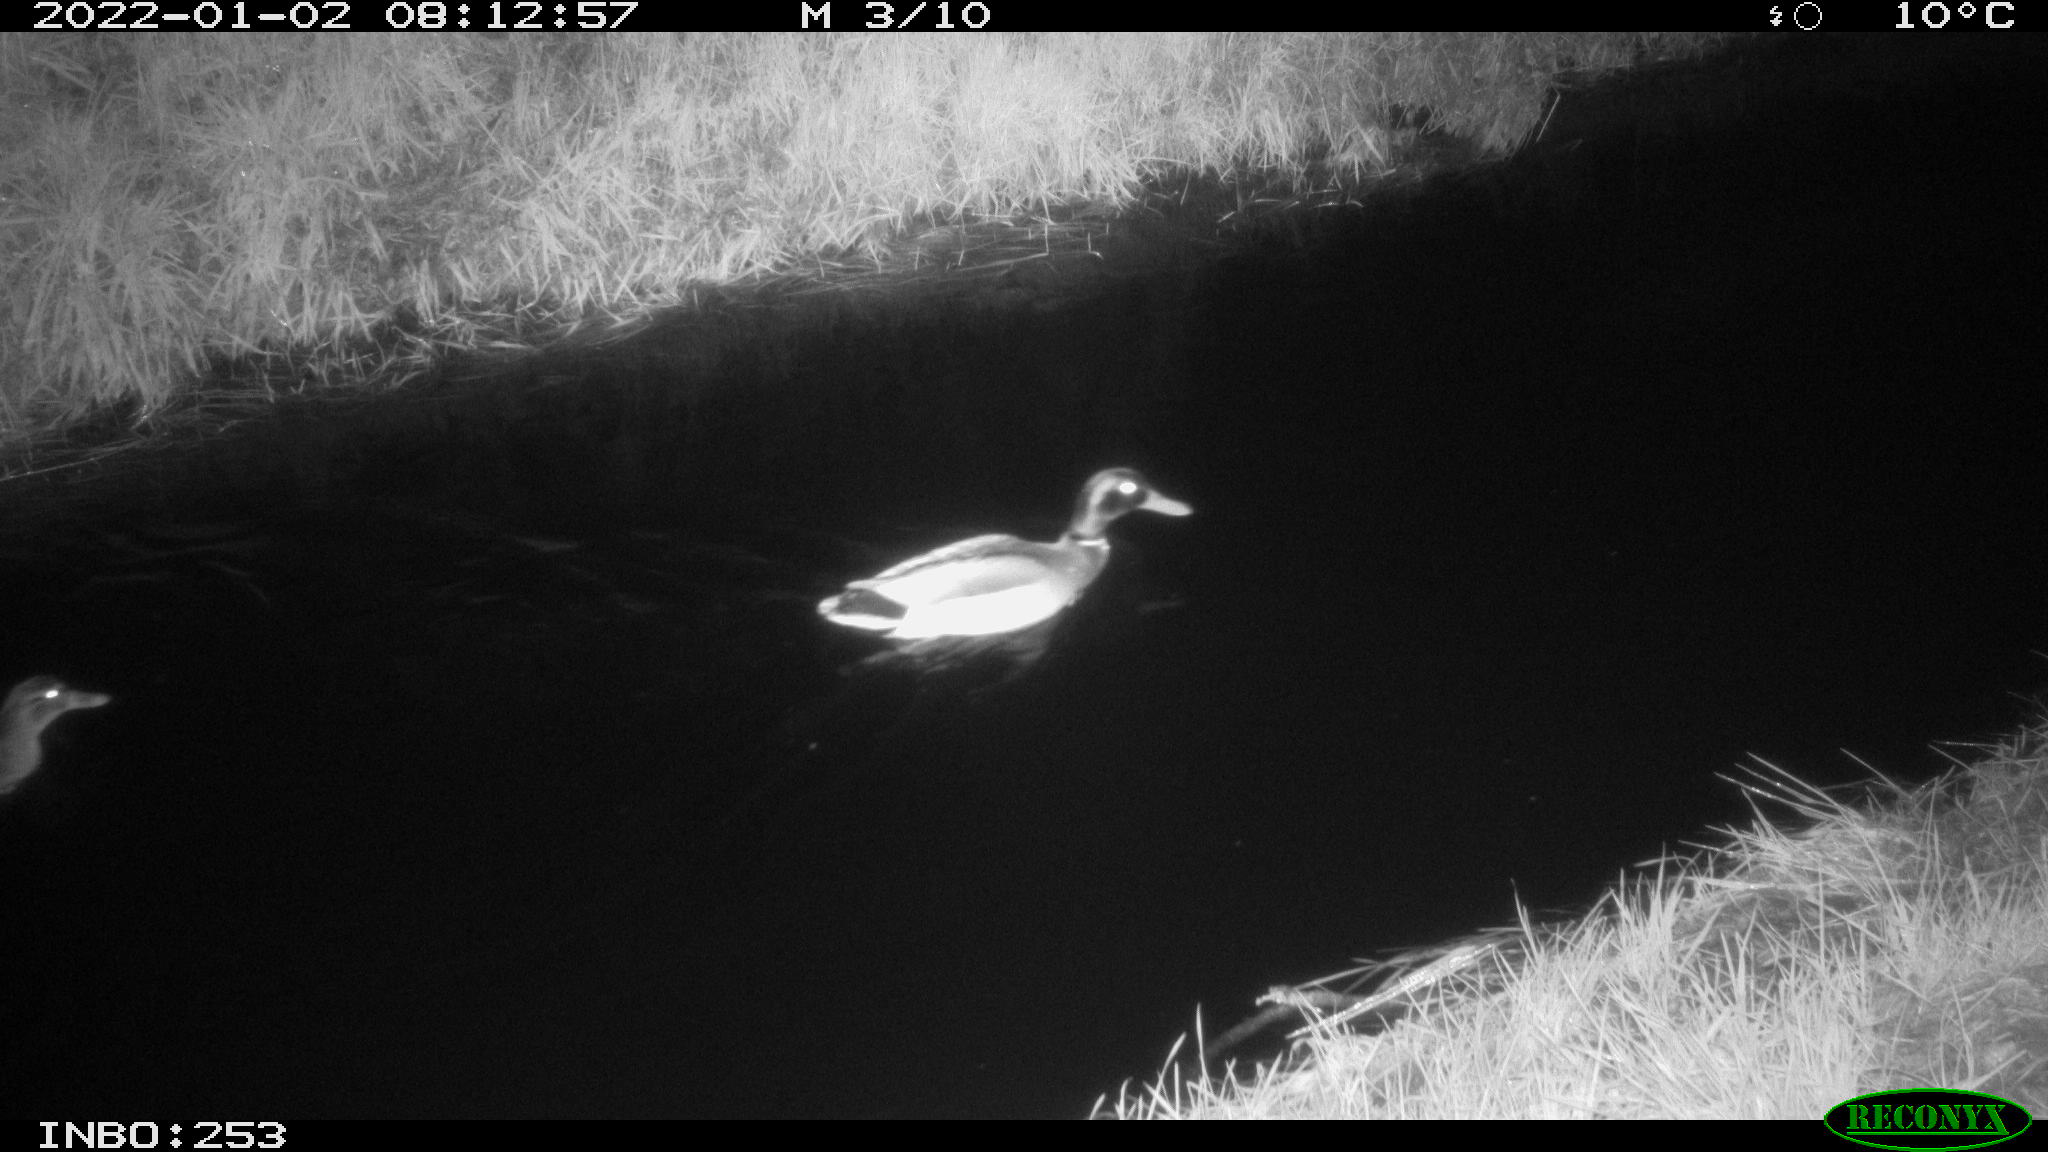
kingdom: Animalia
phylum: Chordata
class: Aves
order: Anseriformes
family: Anatidae
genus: Anas
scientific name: Anas
